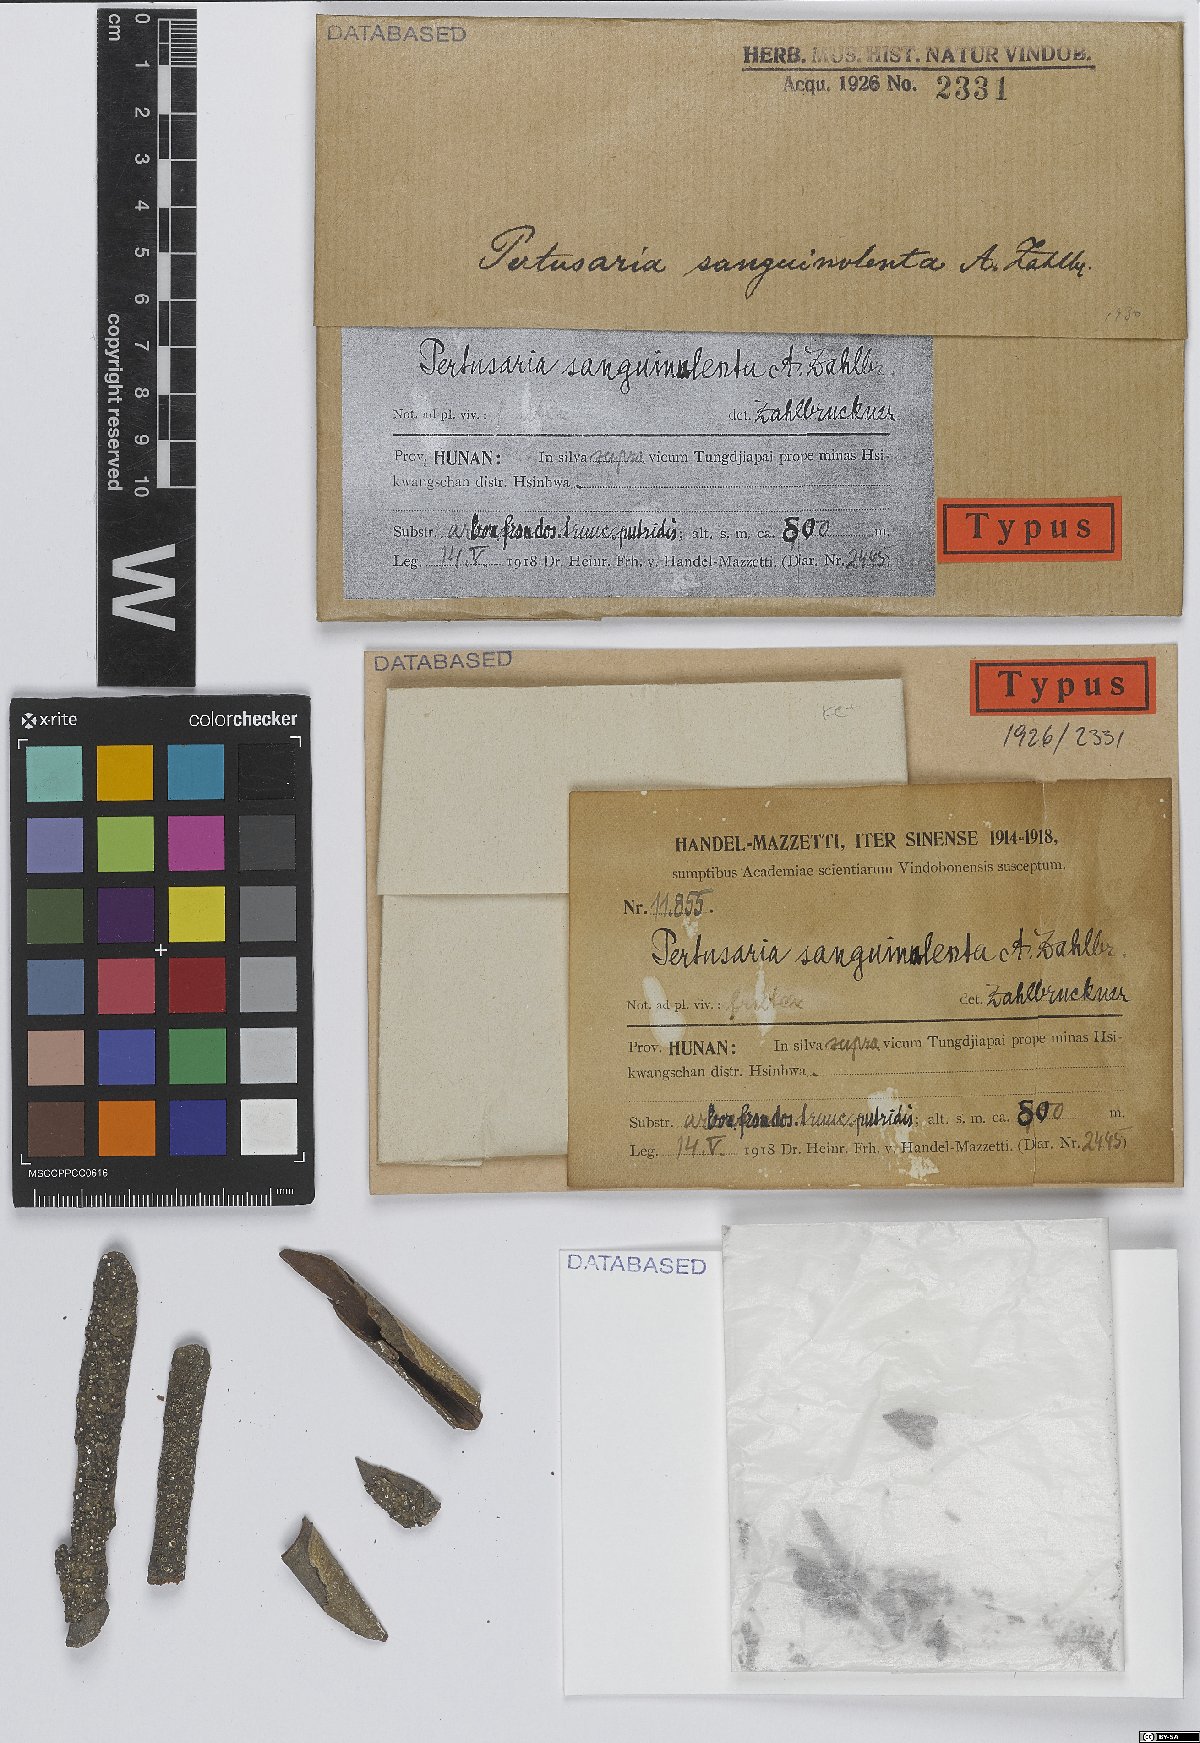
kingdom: Fungi
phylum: Ascomycota
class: Lecanoromycetes
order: Pertusariales
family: Pertusariaceae
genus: Lepra
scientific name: Lepra submultipuncta
